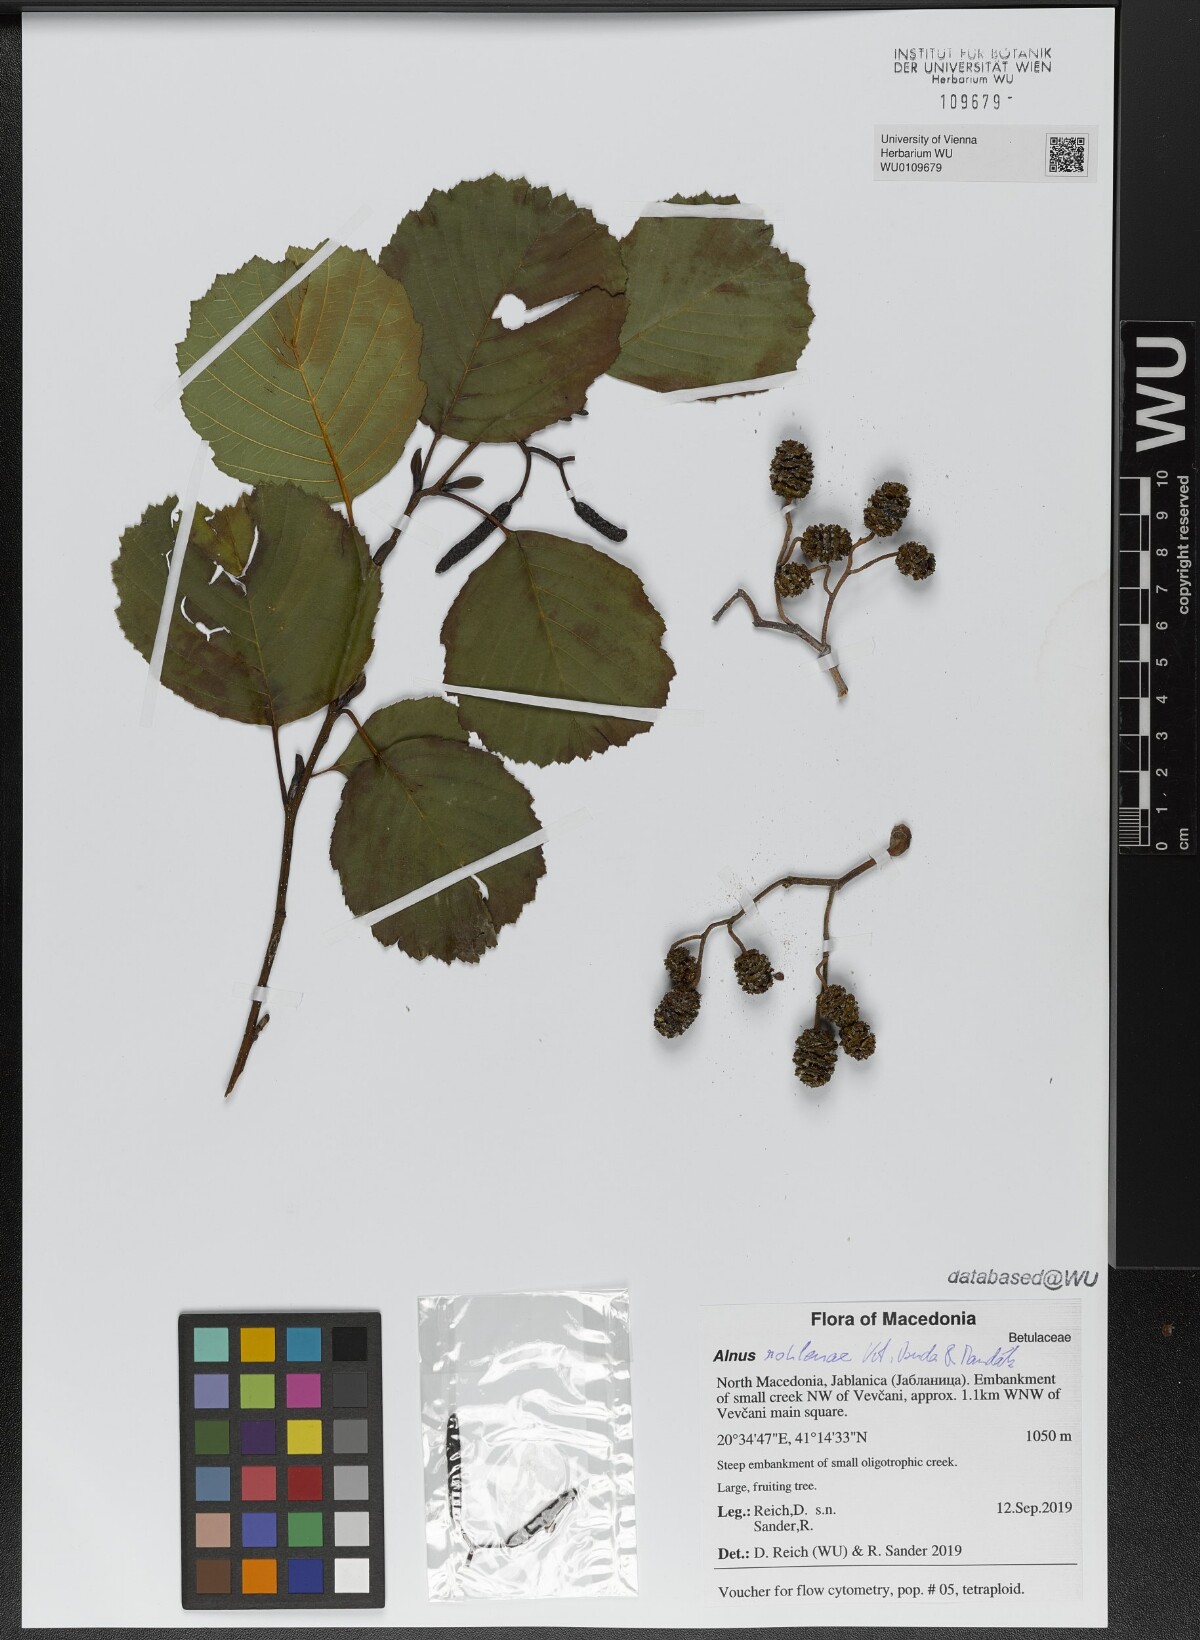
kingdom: Plantae
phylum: Tracheophyta
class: Magnoliopsida
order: Fagales
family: Betulaceae
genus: Alnus
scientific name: Alnus rohlenae
